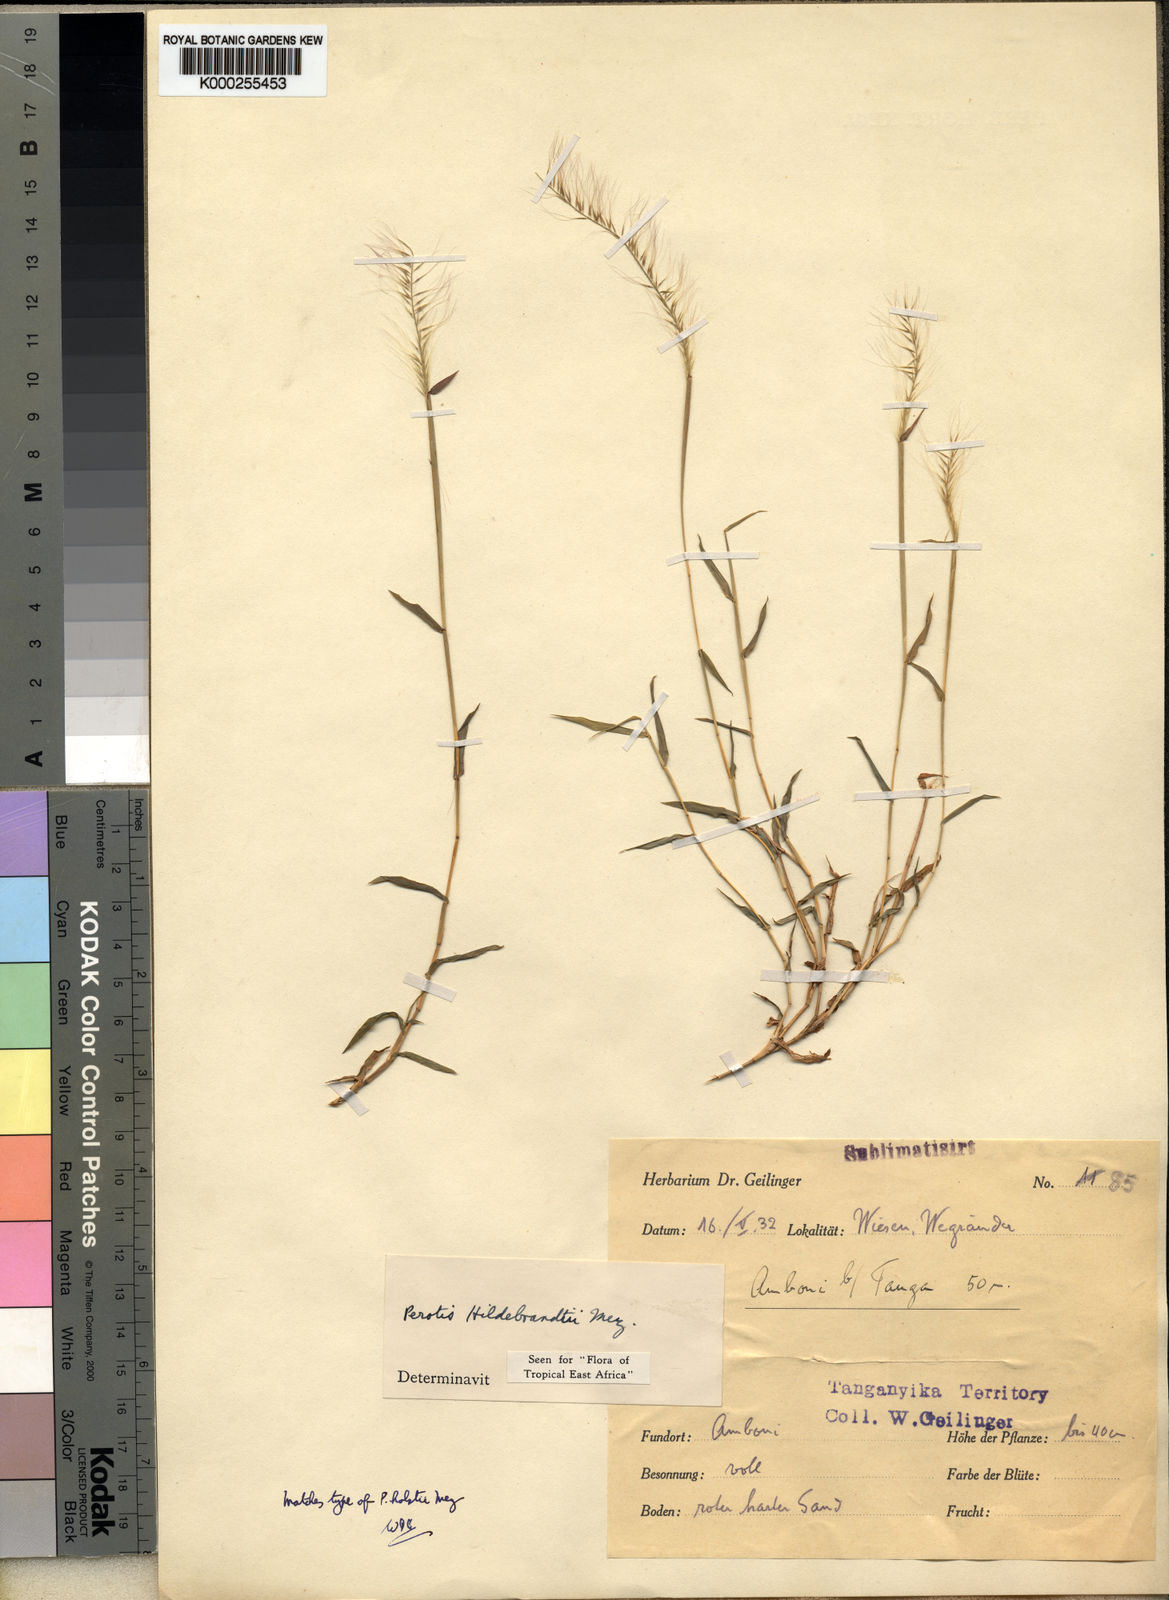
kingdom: Plantae
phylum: Tracheophyta
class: Liliopsida
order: Poales
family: Poaceae
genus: Perotis
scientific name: Perotis hildebrandtii
